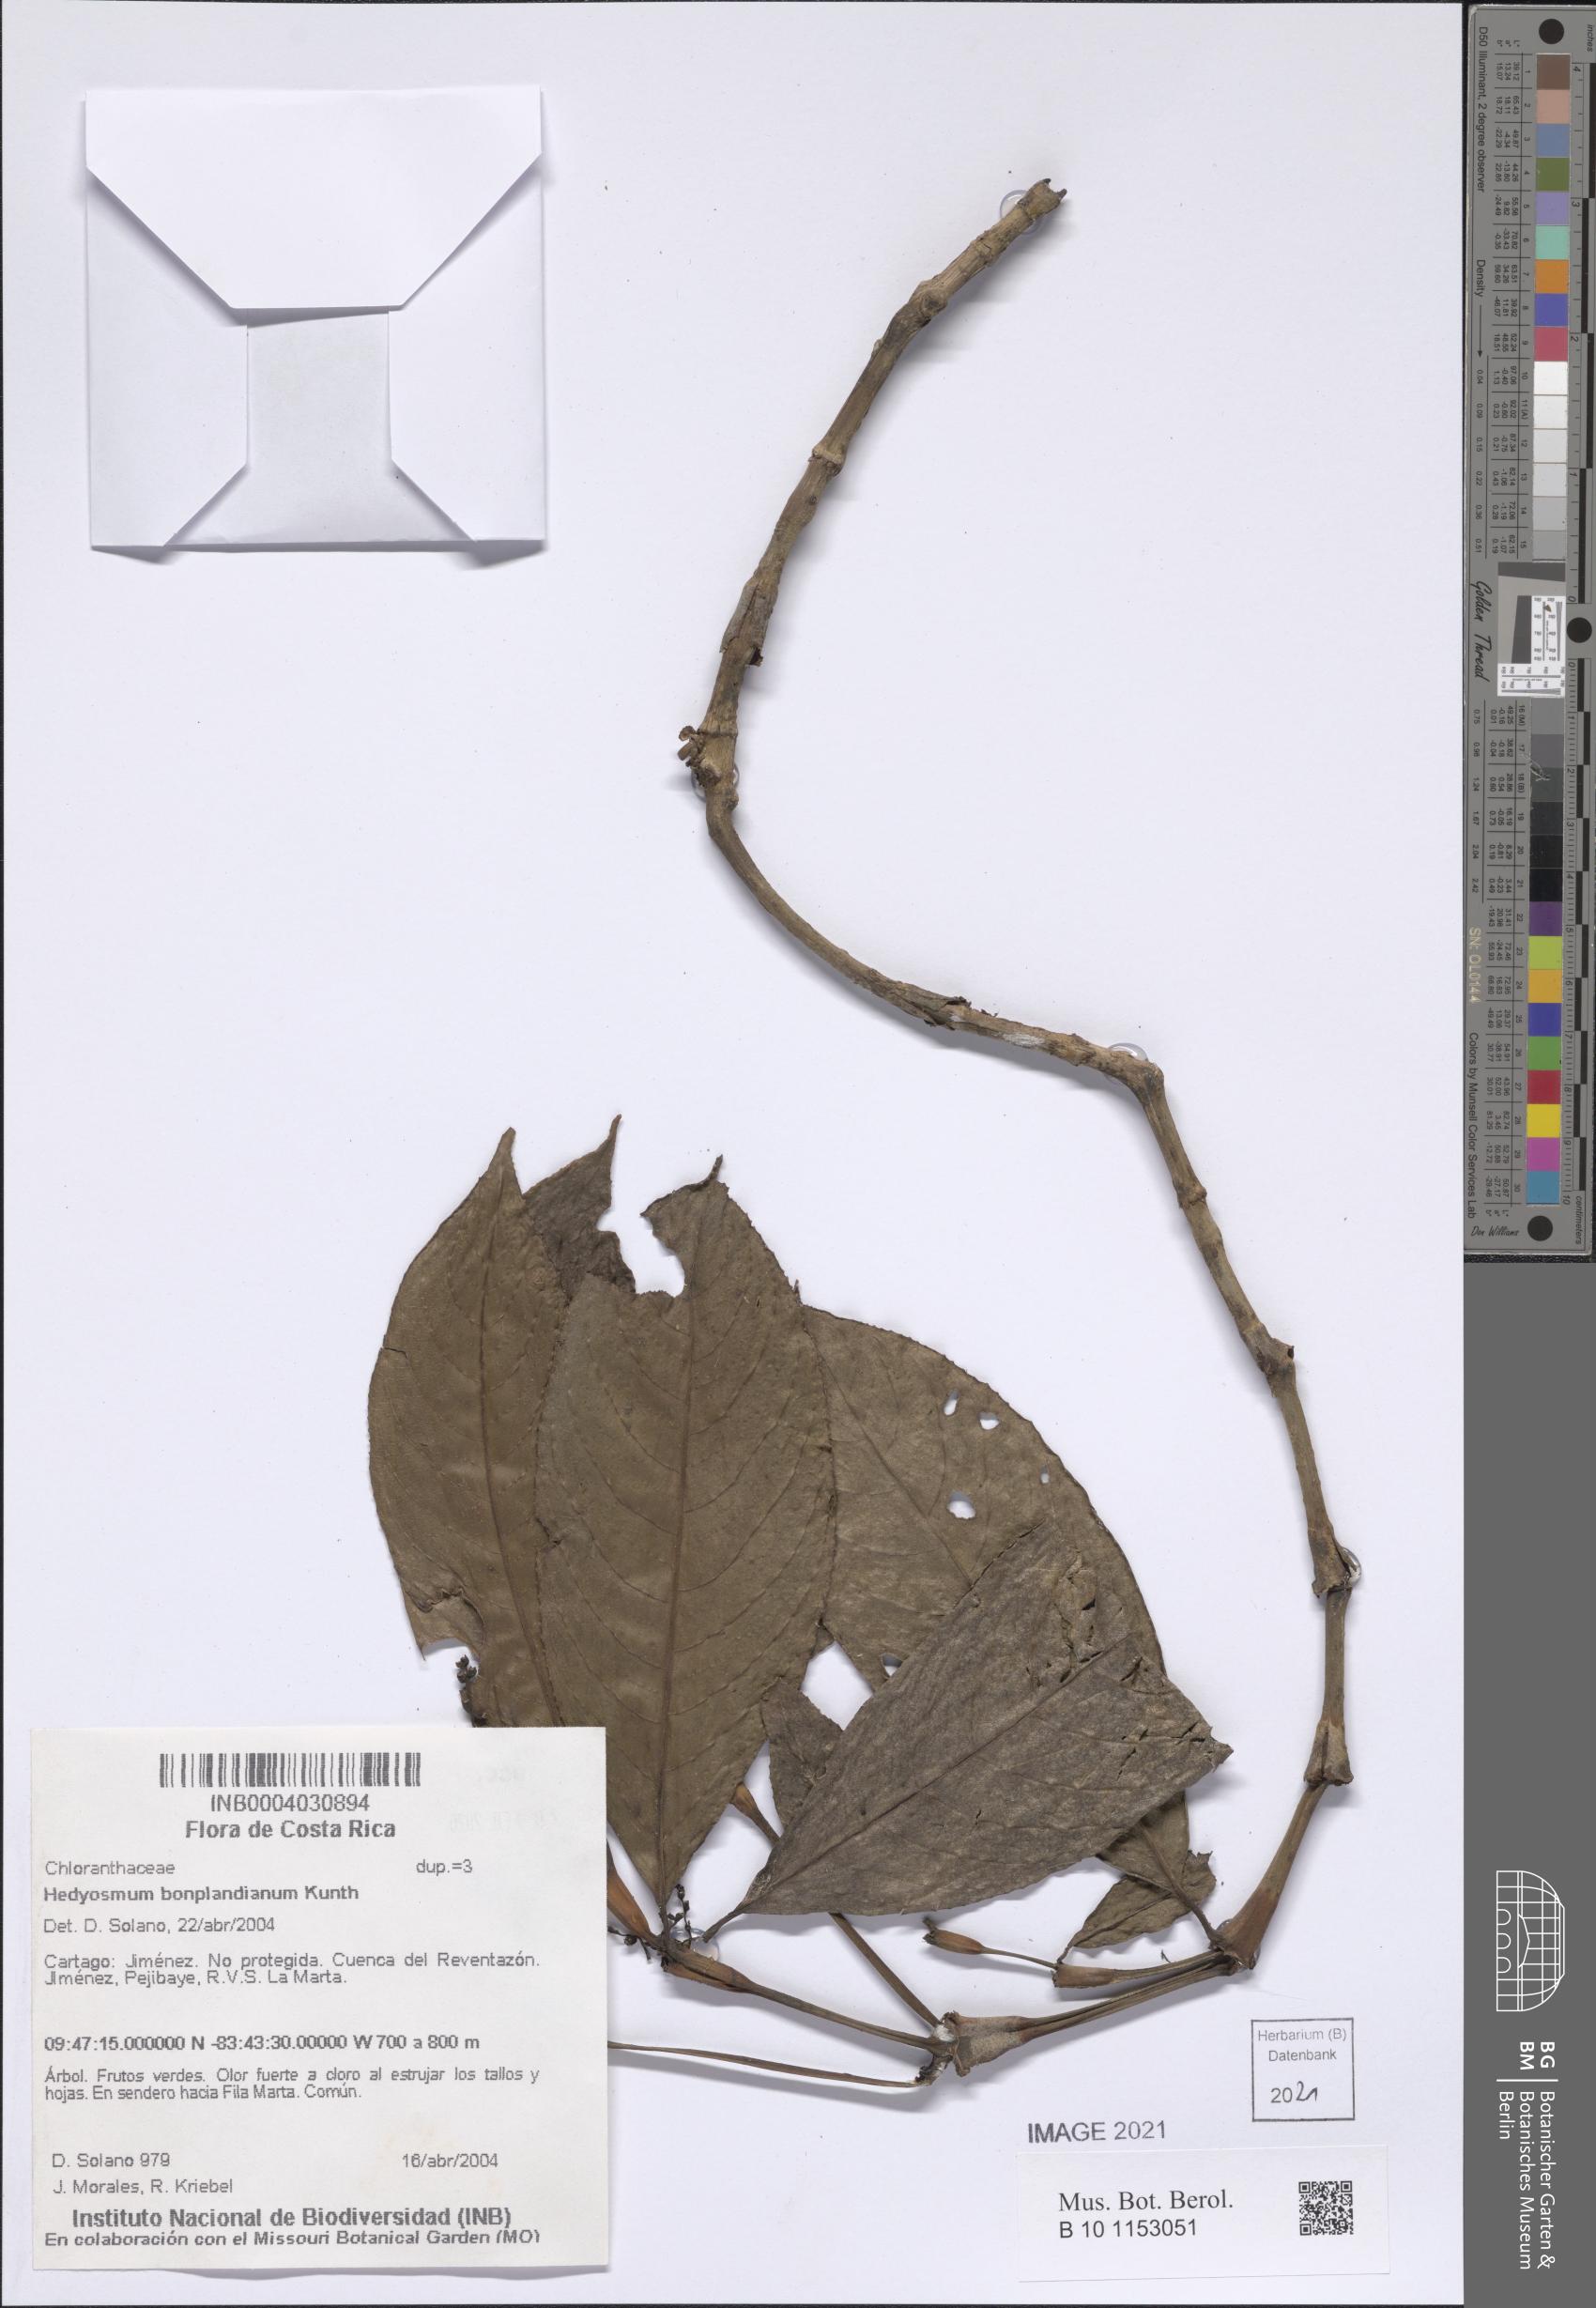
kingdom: Plantae
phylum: Tracheophyta
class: Magnoliopsida
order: Chloranthales
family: Chloranthaceae
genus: Hedyosmum
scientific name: Hedyosmum bonplandianum
